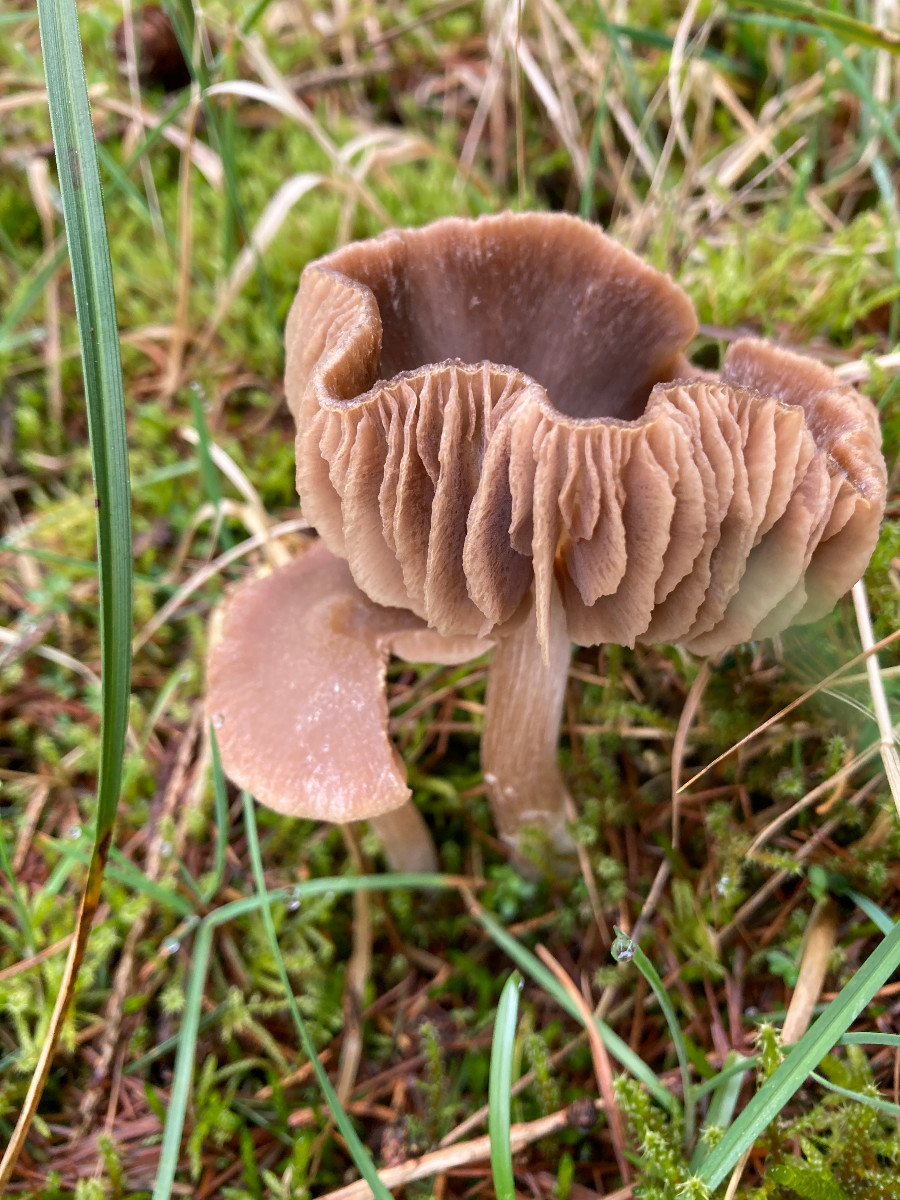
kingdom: Fungi
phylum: Basidiomycota
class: Agaricomycetes
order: Agaricales
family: Entolomataceae
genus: Entoloma
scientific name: Entoloma
